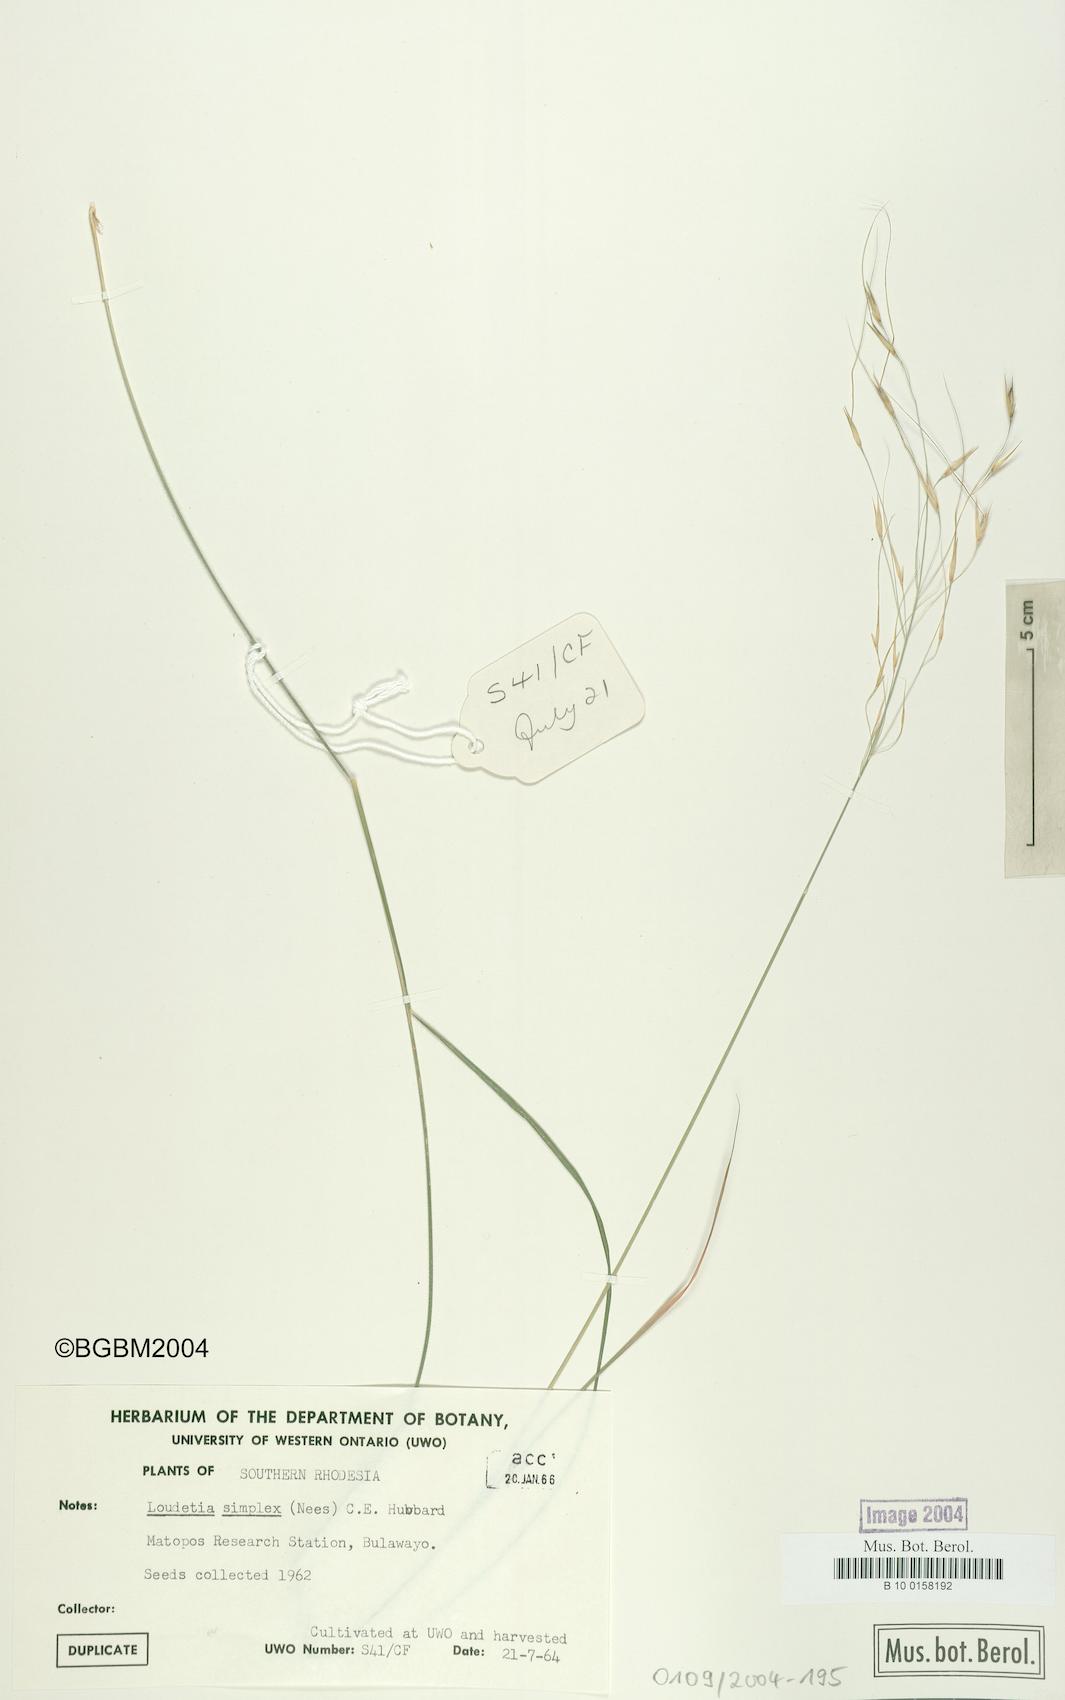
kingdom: Plantae
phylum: Tracheophyta
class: Liliopsida
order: Poales
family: Poaceae
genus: Loudetia
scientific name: Loudetia simplex
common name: Common russet grass
